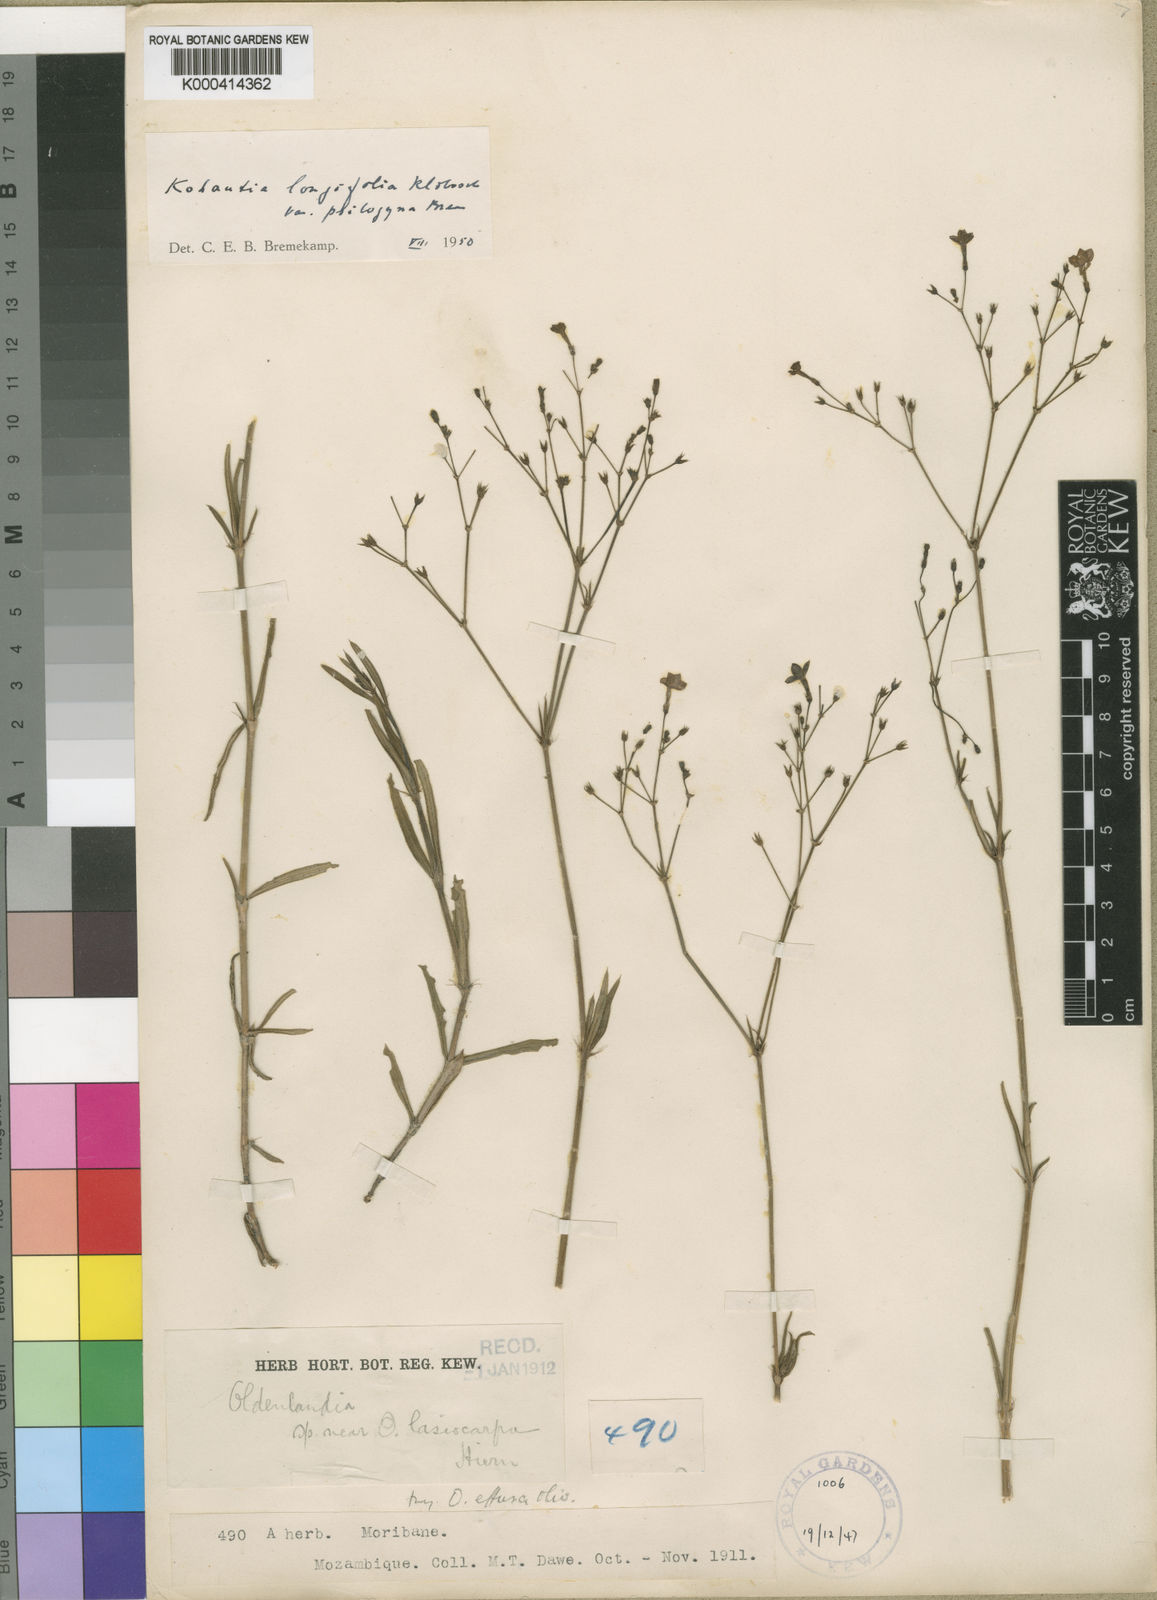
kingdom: Plantae
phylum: Tracheophyta
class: Magnoliopsida
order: Gentianales
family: Rubiaceae
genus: Cordylostigma
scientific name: Cordylostigma longifolium
